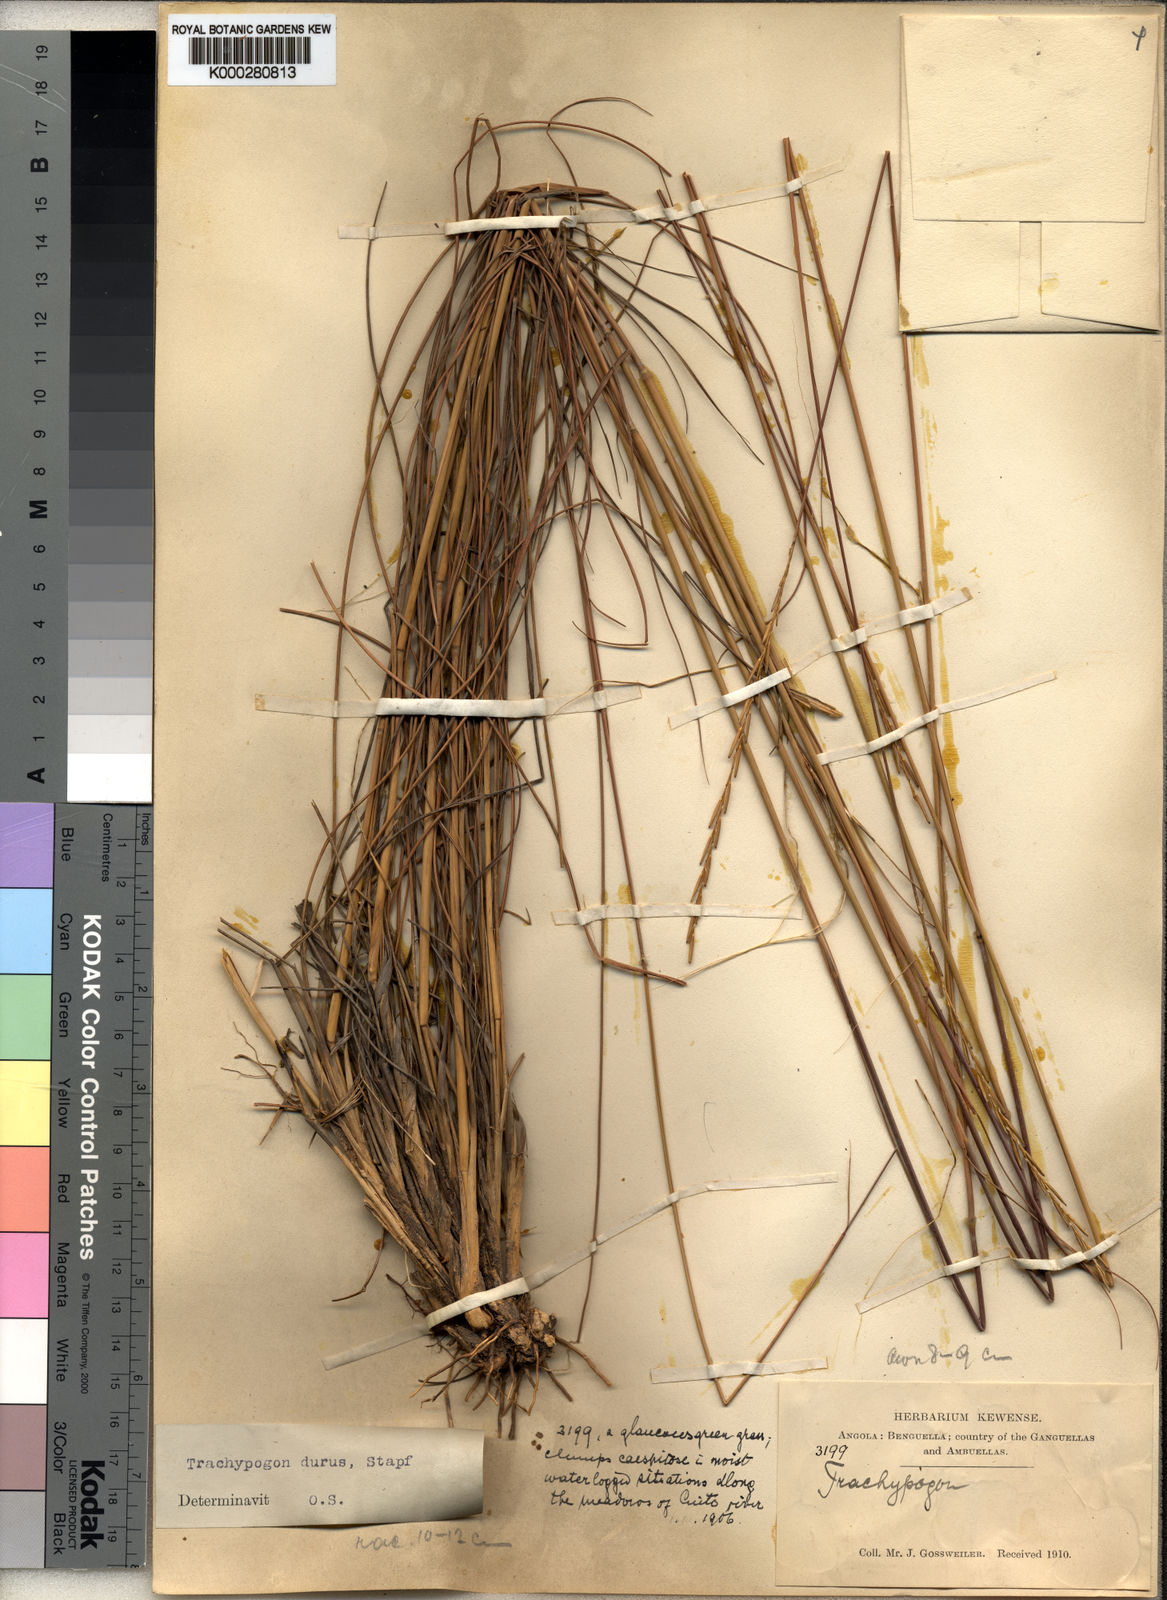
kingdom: Plantae
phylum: Tracheophyta
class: Liliopsida
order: Poales
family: Poaceae
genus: Trachypogon
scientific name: Trachypogon spicatus
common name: Crinkle-awn
